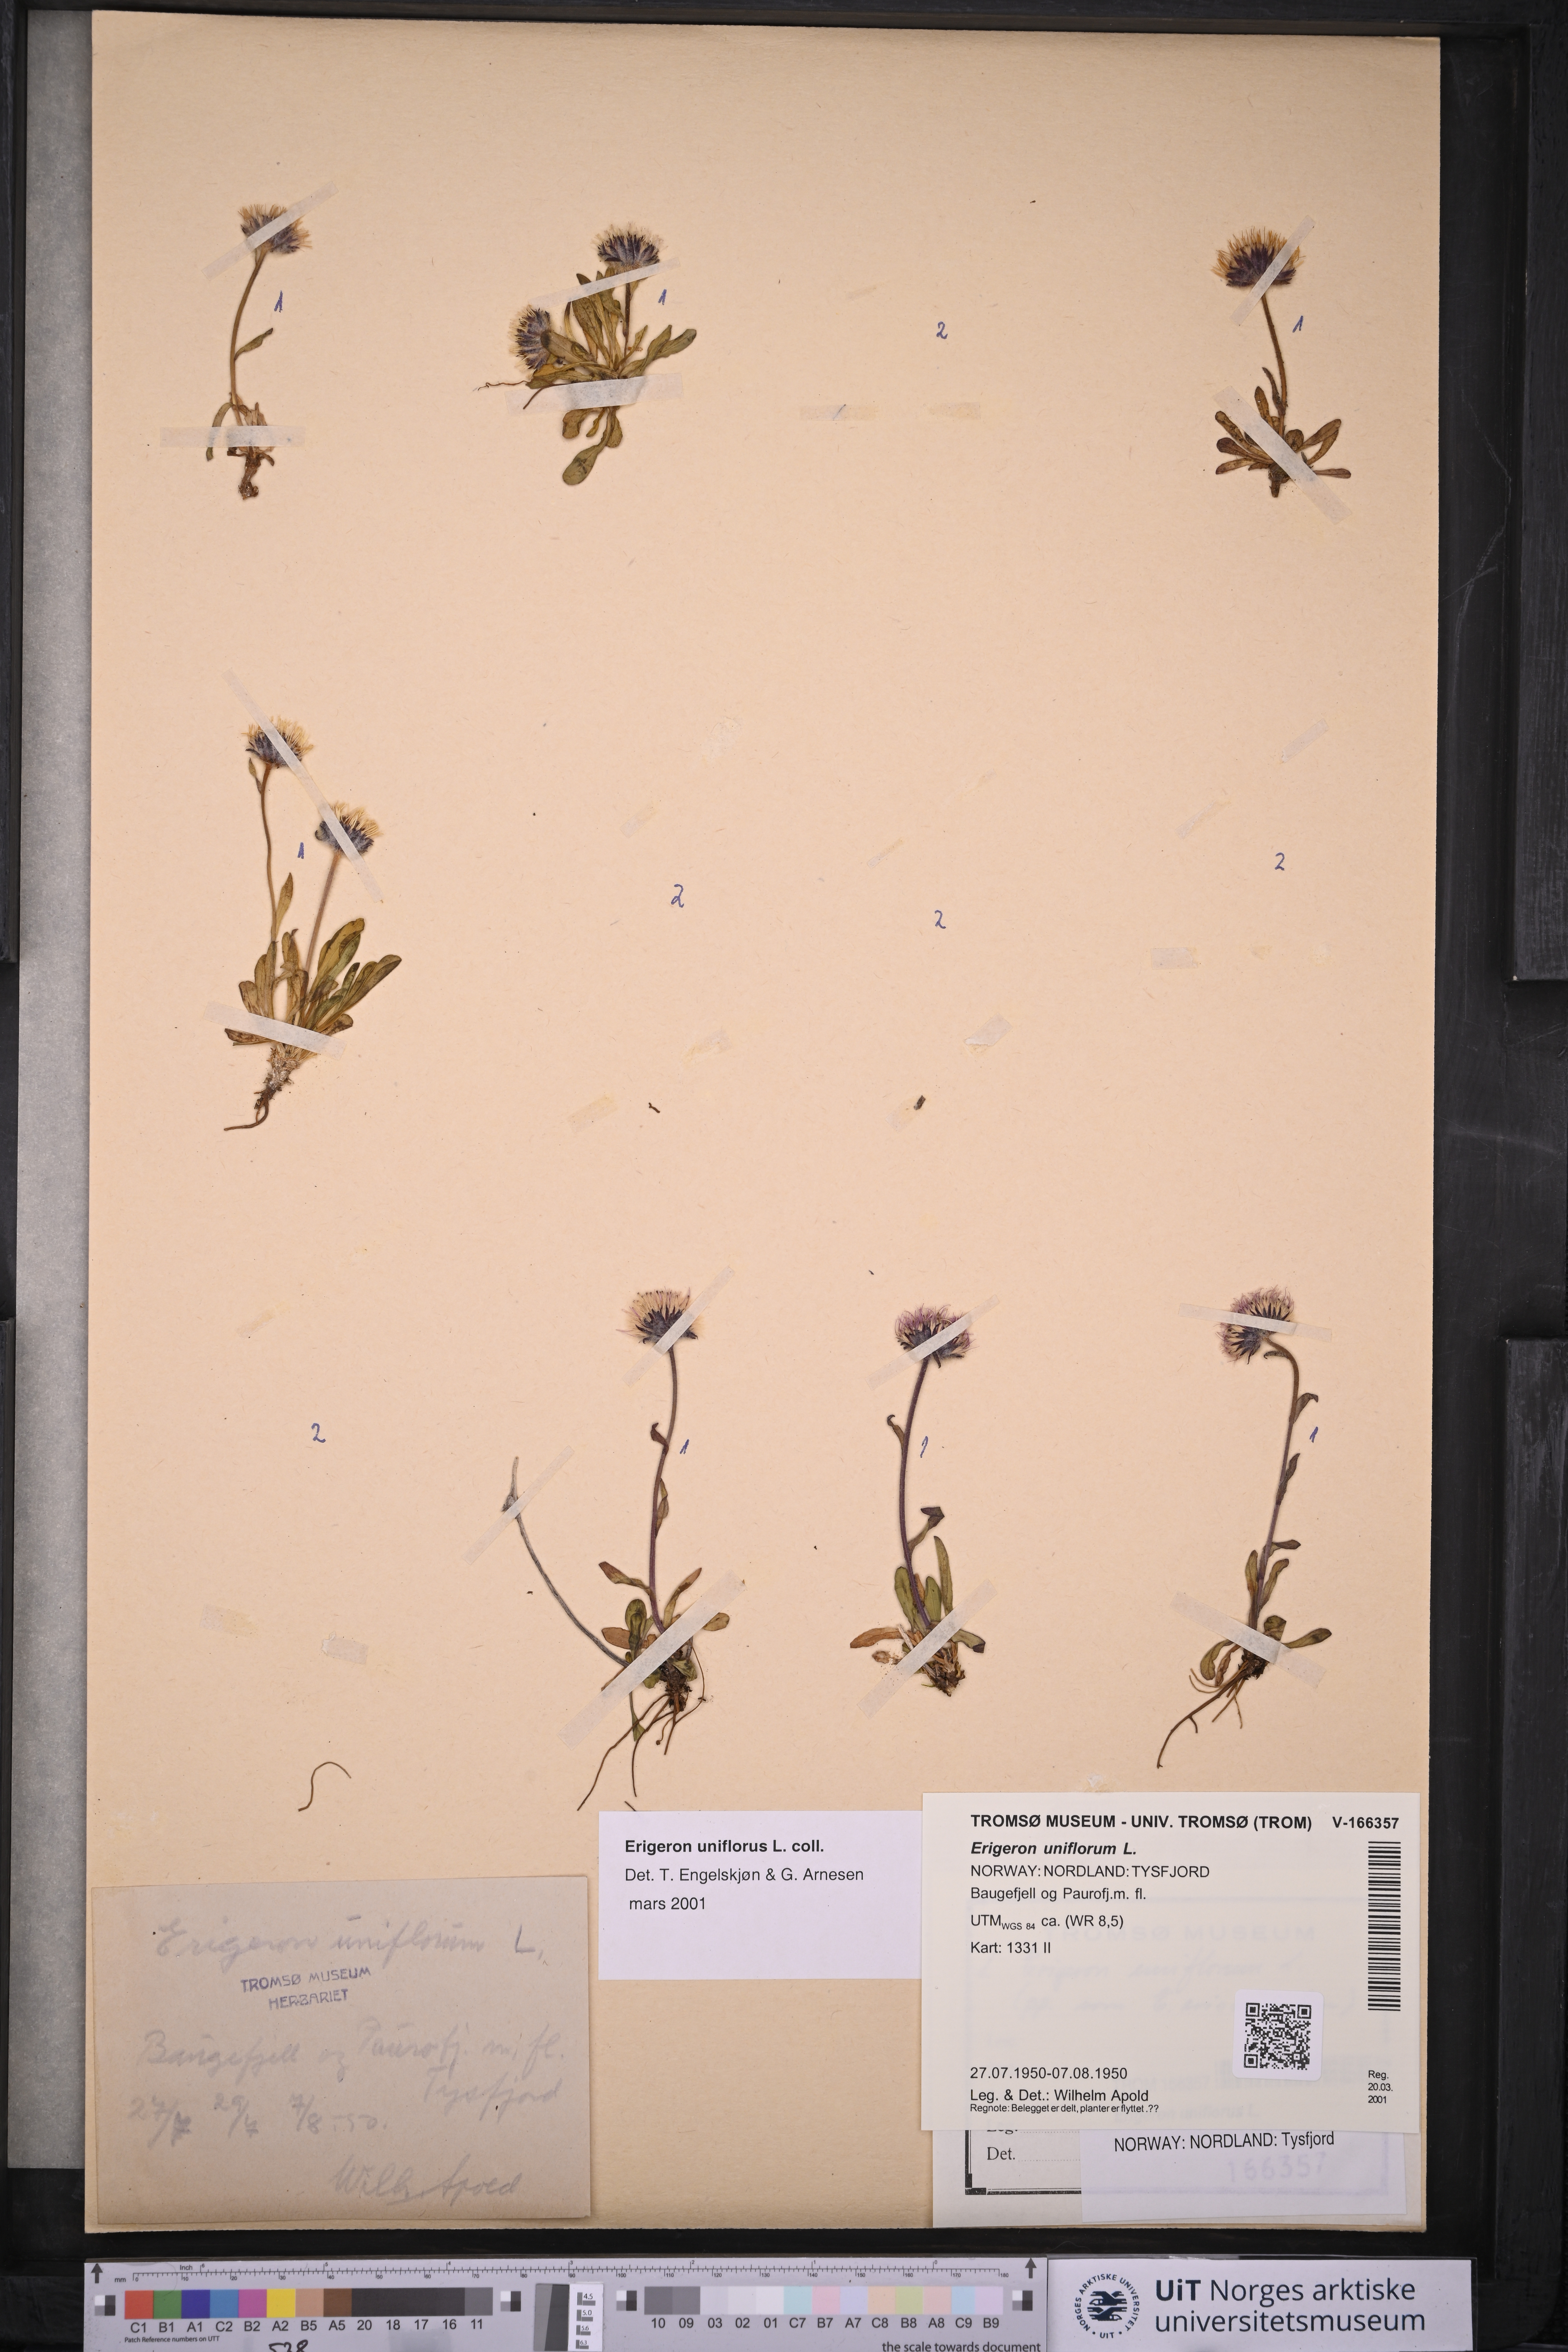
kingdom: Plantae
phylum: Tracheophyta
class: Magnoliopsida
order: Asterales
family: Asteraceae
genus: Erigeron
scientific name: Erigeron uniflorus
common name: Northern daisy
